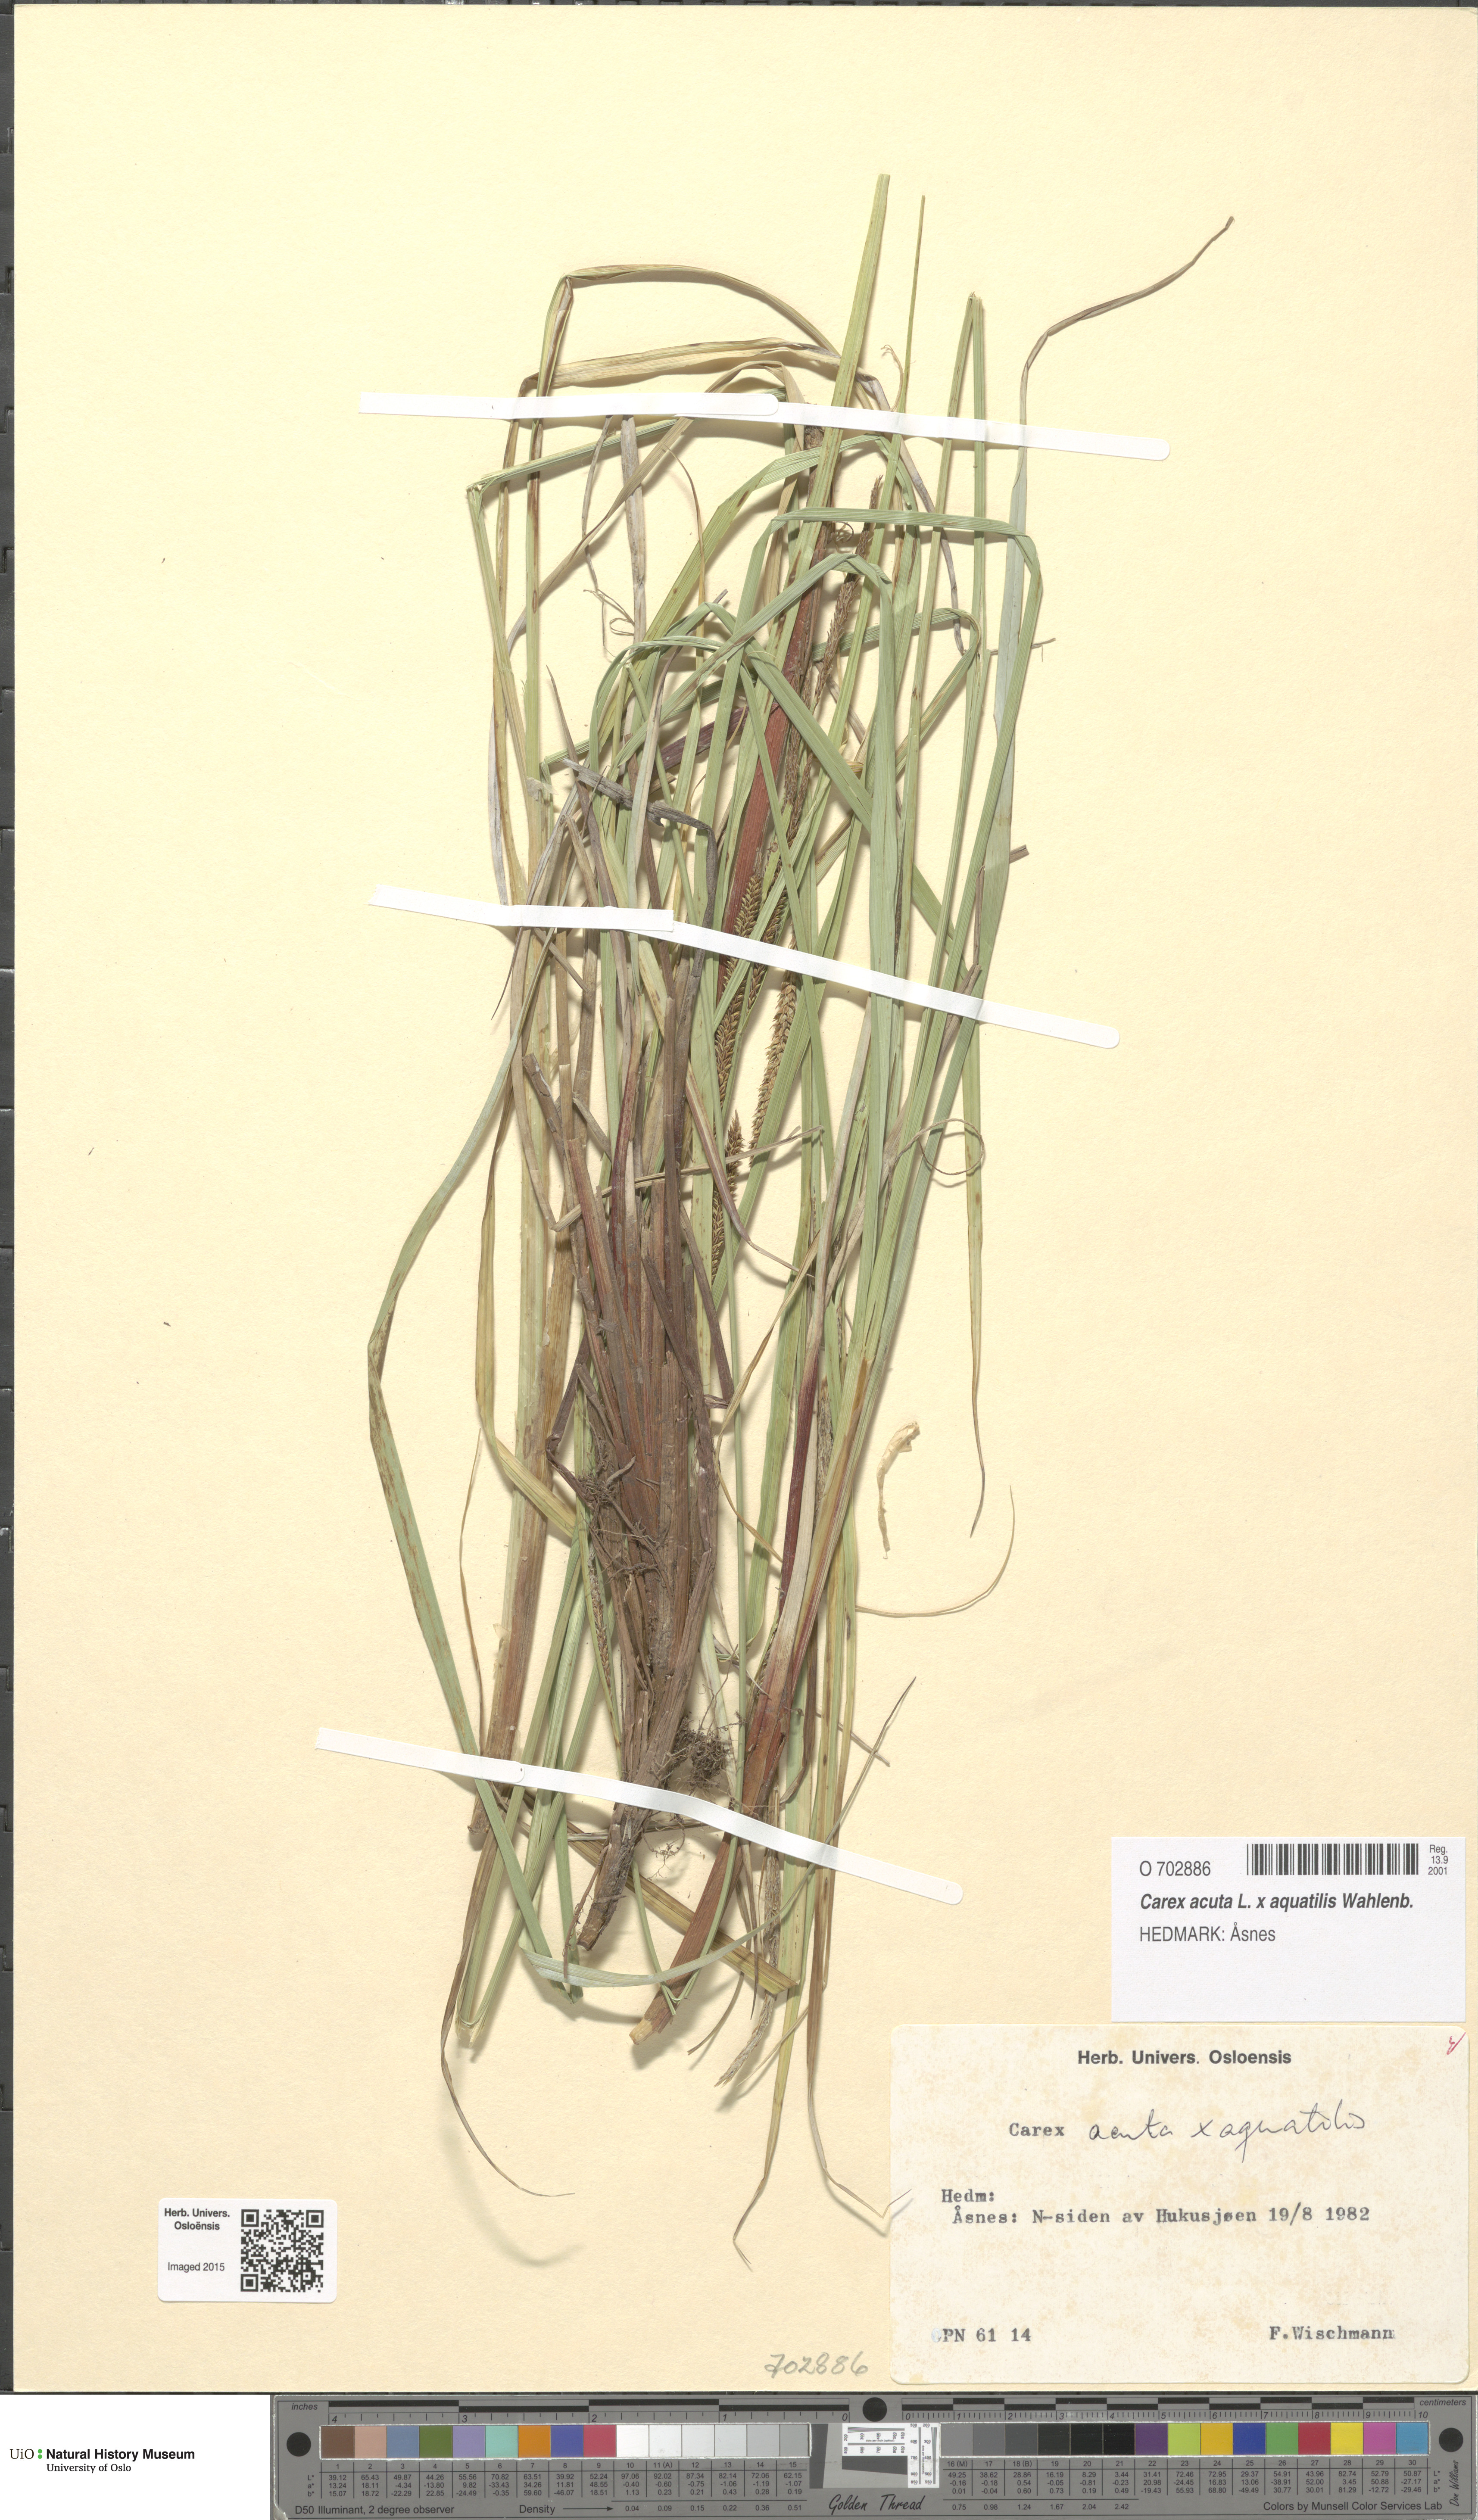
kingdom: Plantae
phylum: Tracheophyta
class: Liliopsida
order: Poales
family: Cyperaceae
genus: Carex
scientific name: Carex
